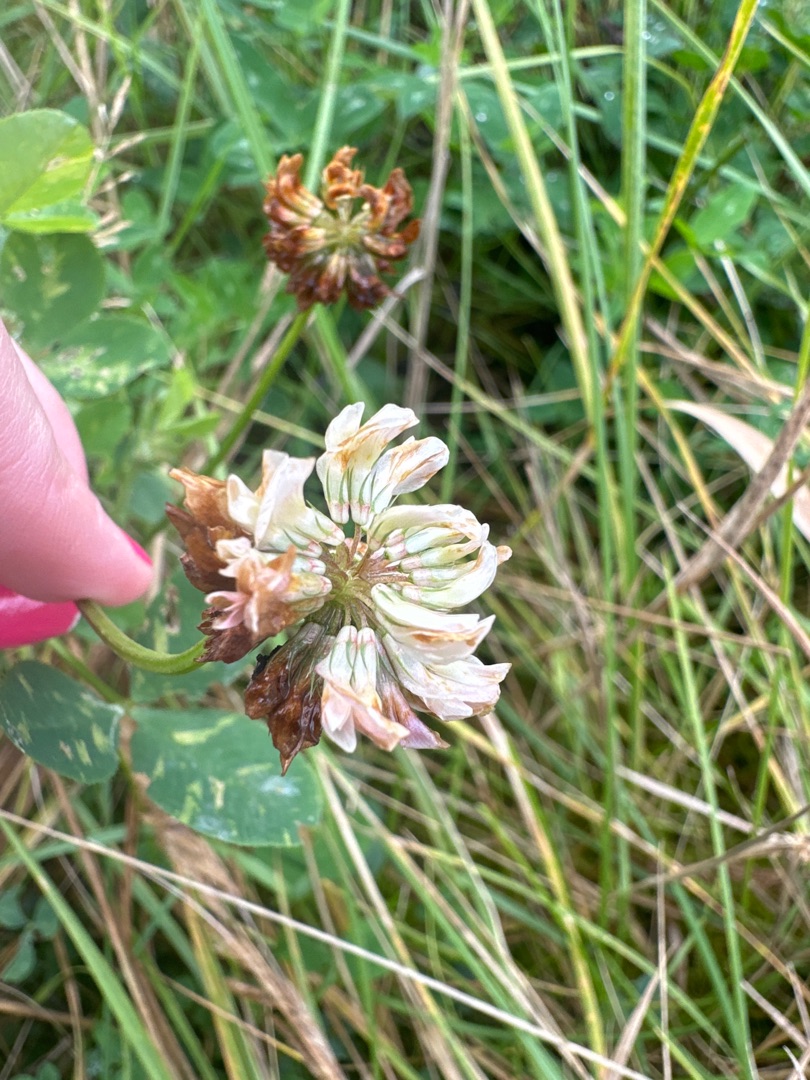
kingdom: Plantae
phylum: Tracheophyta
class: Magnoliopsida
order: Fabales
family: Fabaceae
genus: Trifolium
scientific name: Trifolium repens
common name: Hvid-kløver
